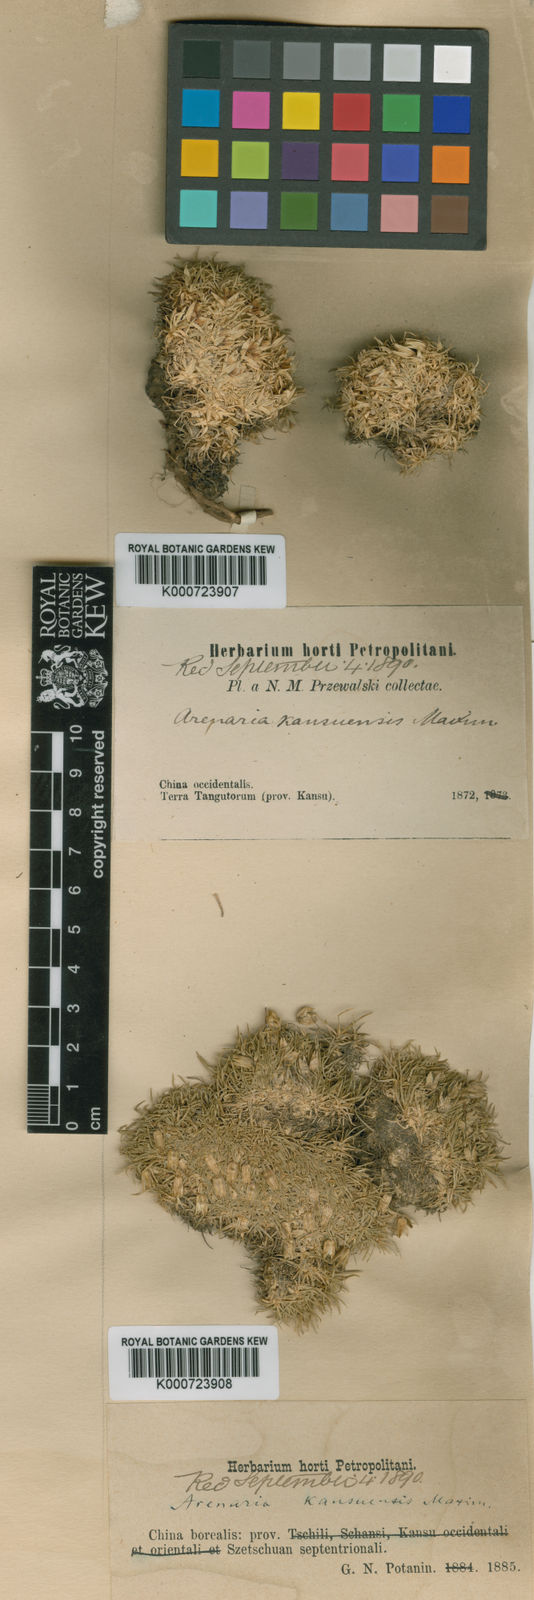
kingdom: Plantae
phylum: Tracheophyta
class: Magnoliopsida
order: Caryophyllales
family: Caryophyllaceae
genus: Eremogone
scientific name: Eremogone kansuensis
